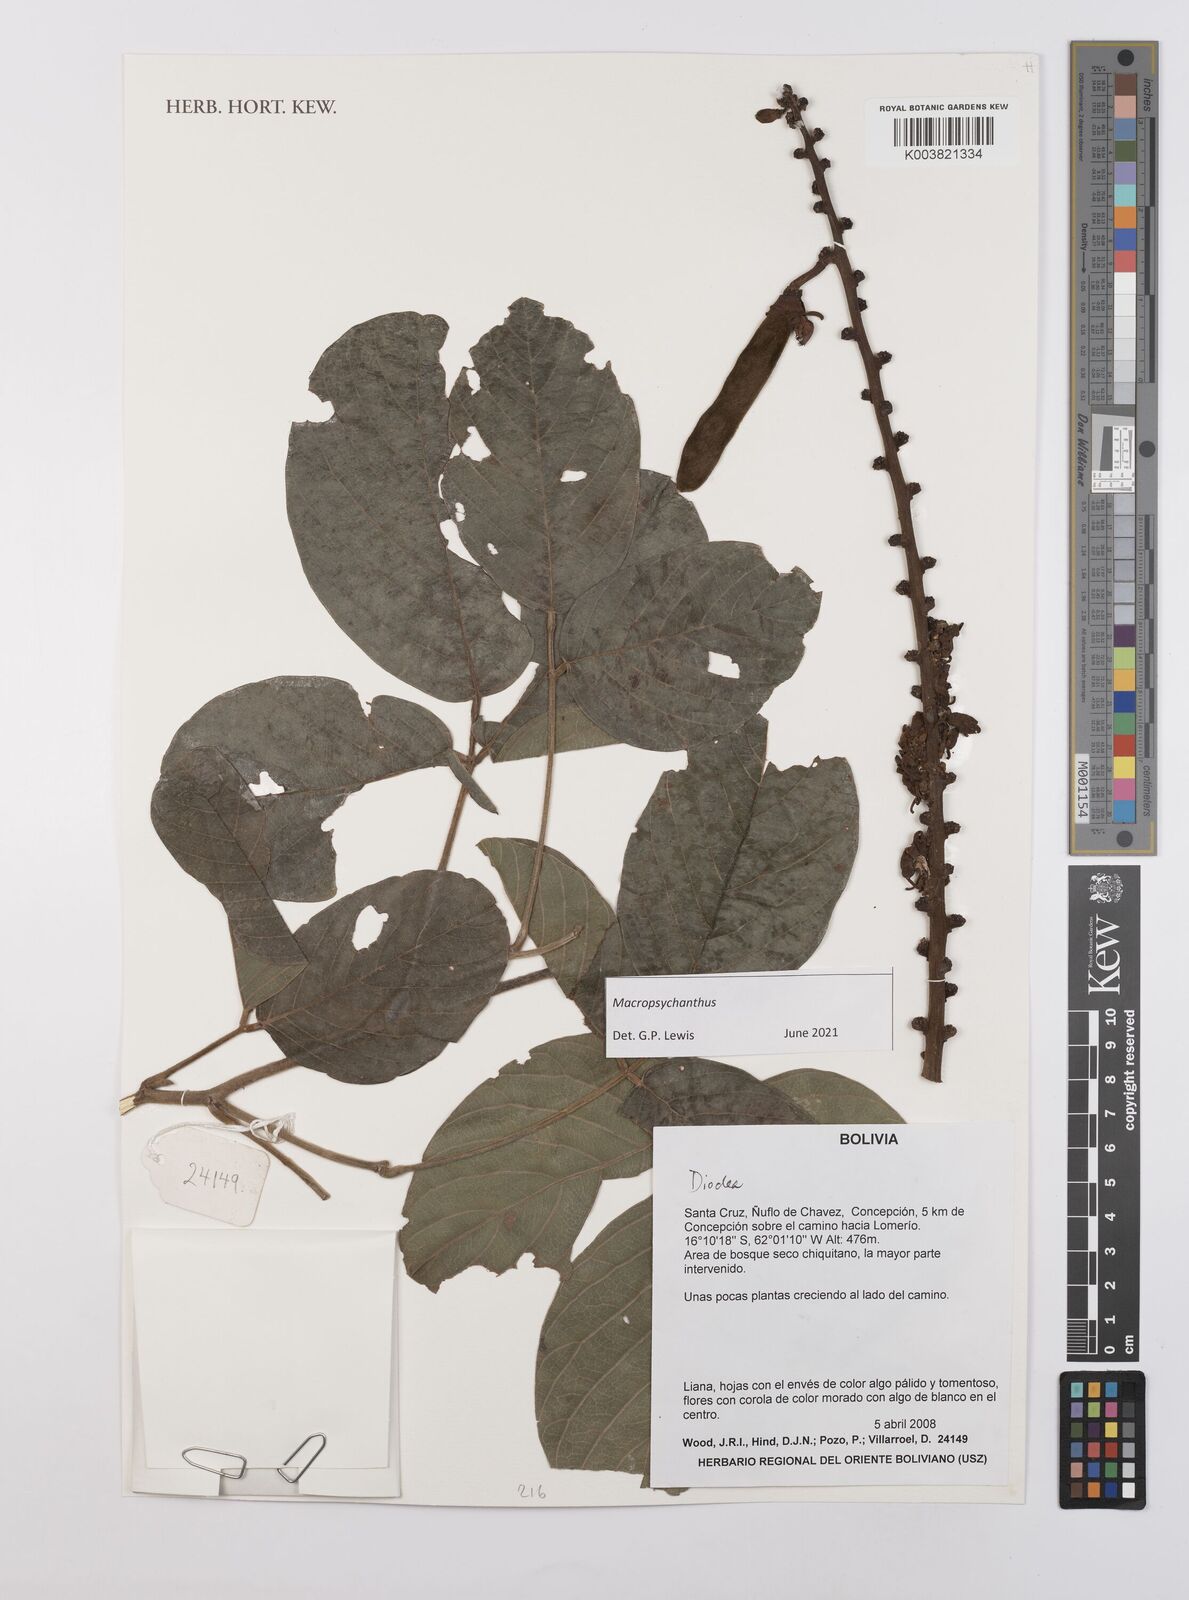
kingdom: Plantae
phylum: Tracheophyta
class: Magnoliopsida
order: Fabales
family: Fabaceae
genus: Macropsychanthus
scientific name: Macropsychanthus
